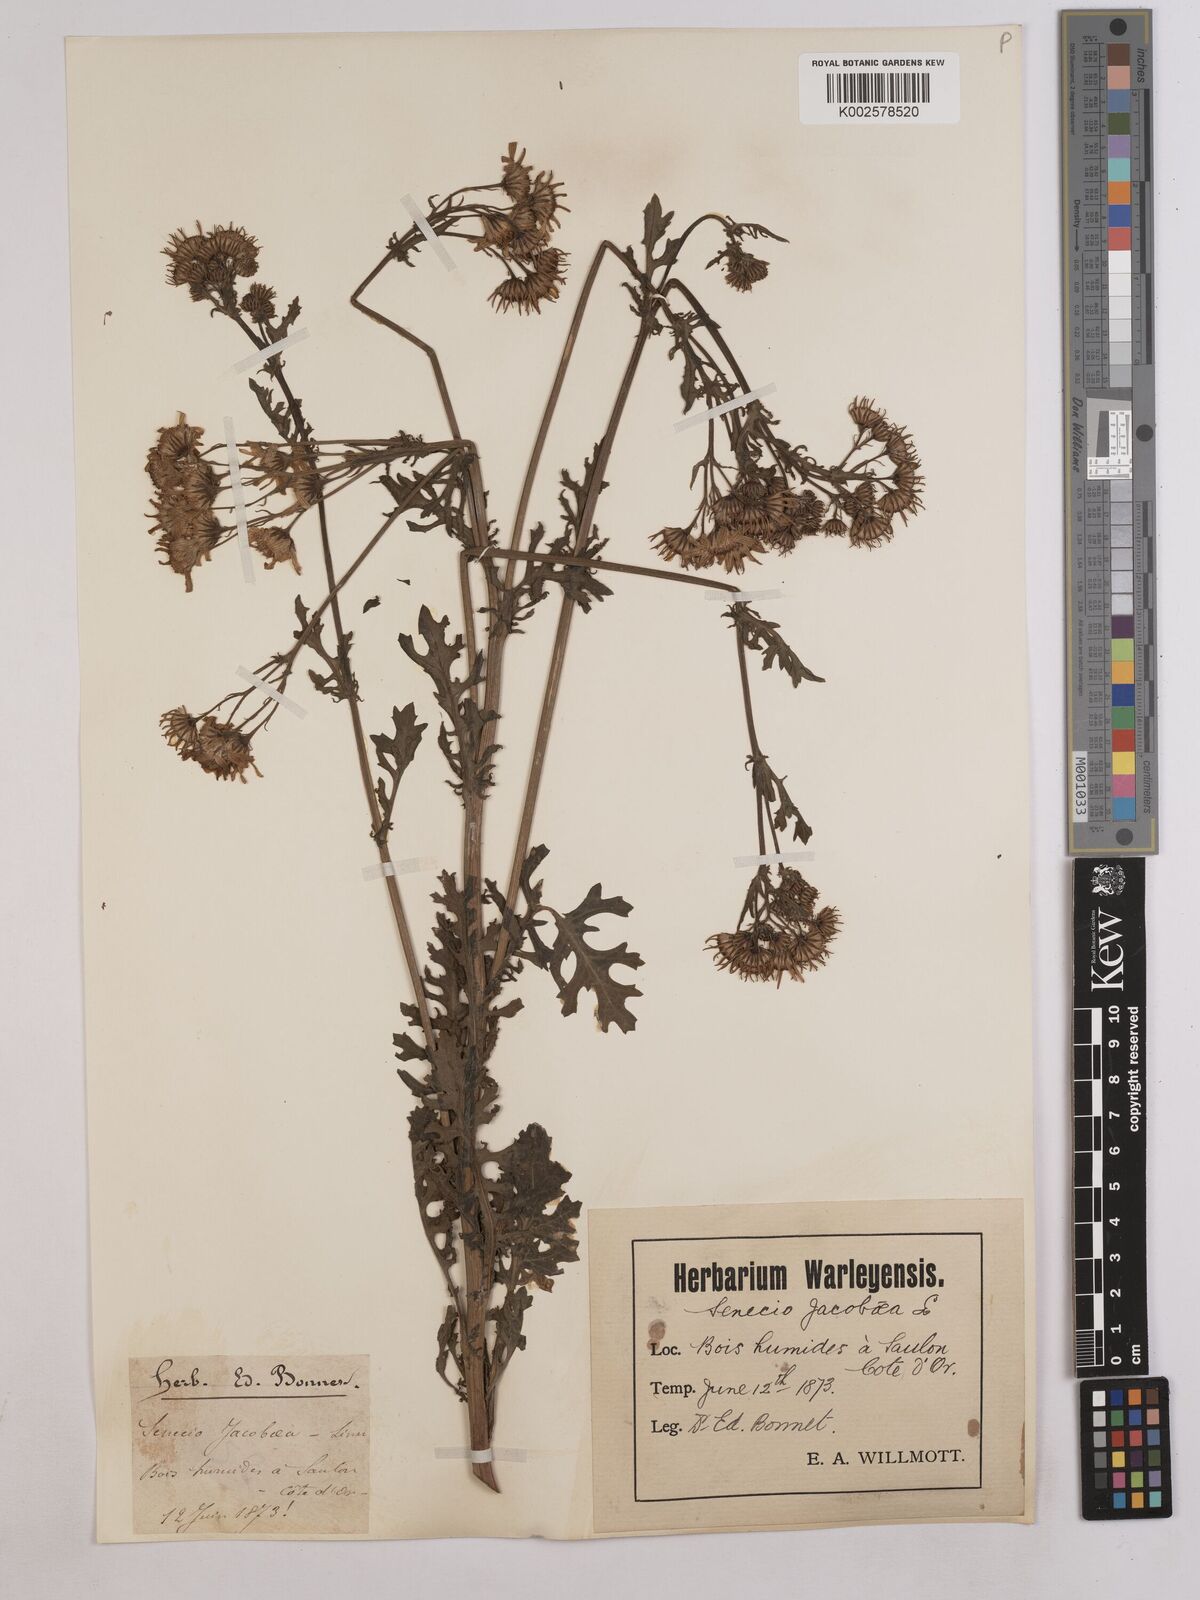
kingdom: Plantae
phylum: Tracheophyta
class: Magnoliopsida
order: Asterales
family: Asteraceae
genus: Jacobaea
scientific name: Jacobaea vulgaris
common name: Stinking willie
